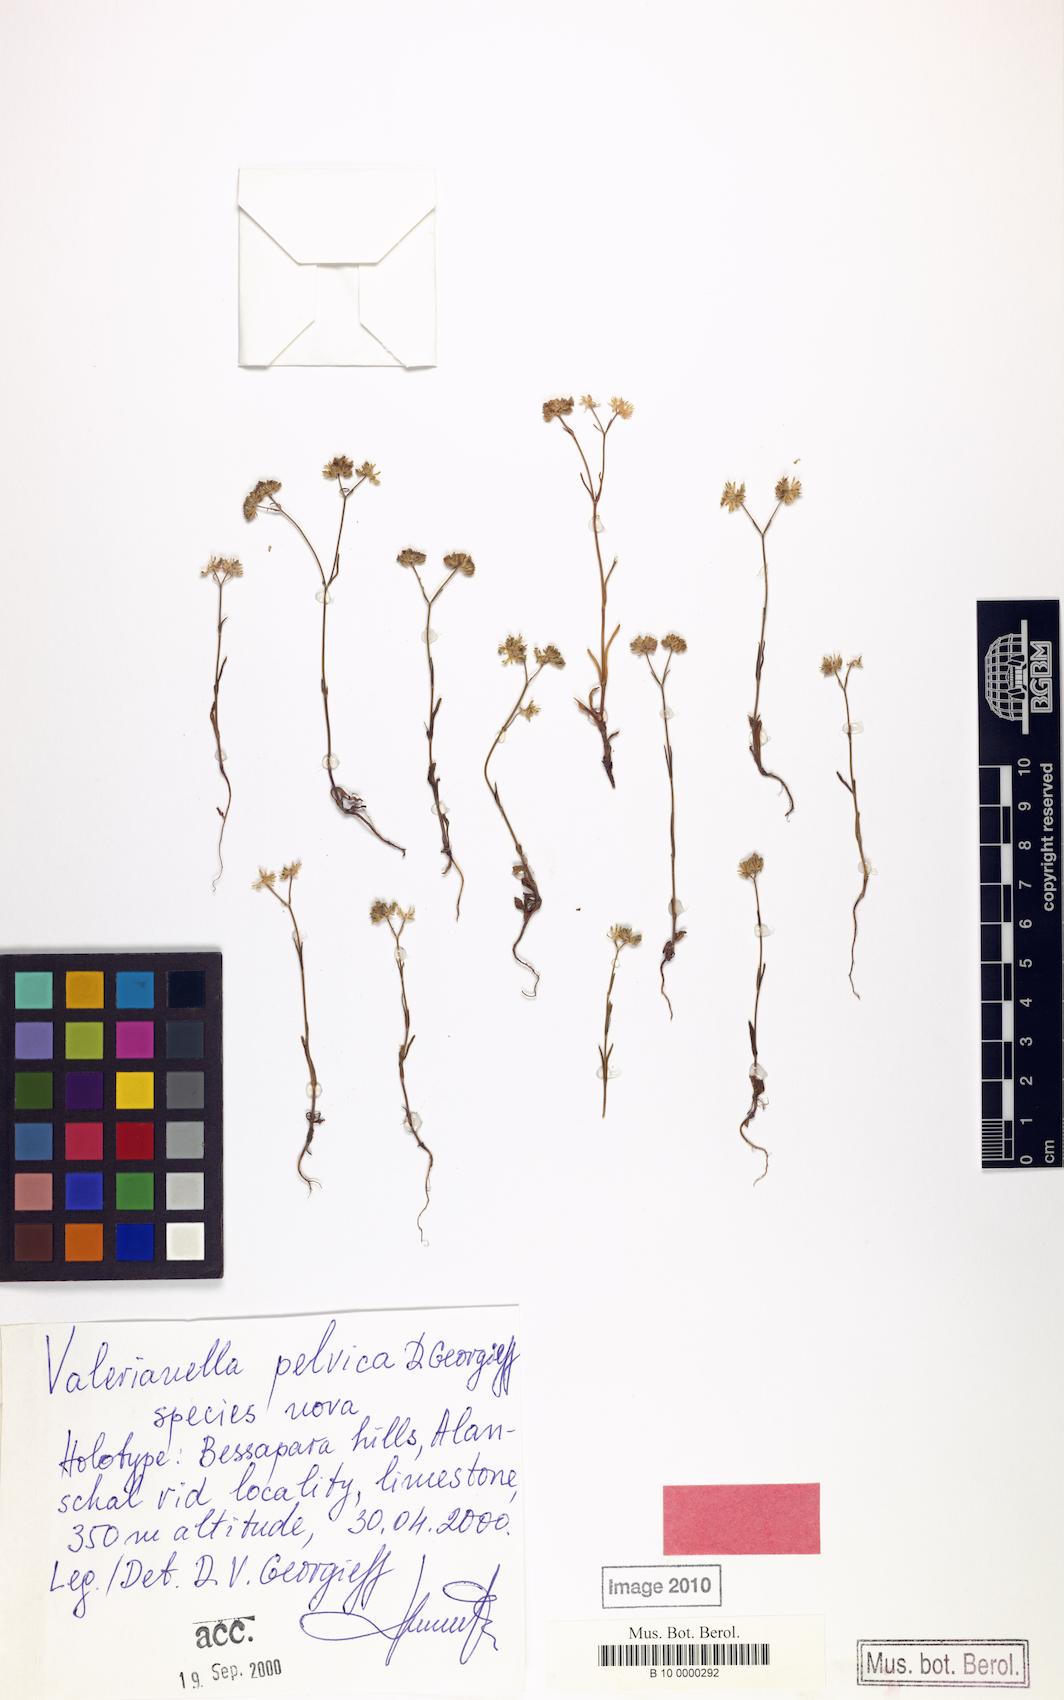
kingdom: Plantae
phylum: Tracheophyta
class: Magnoliopsida
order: Dipsacales
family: Caprifoliaceae
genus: Valerianella
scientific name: Valerianella
